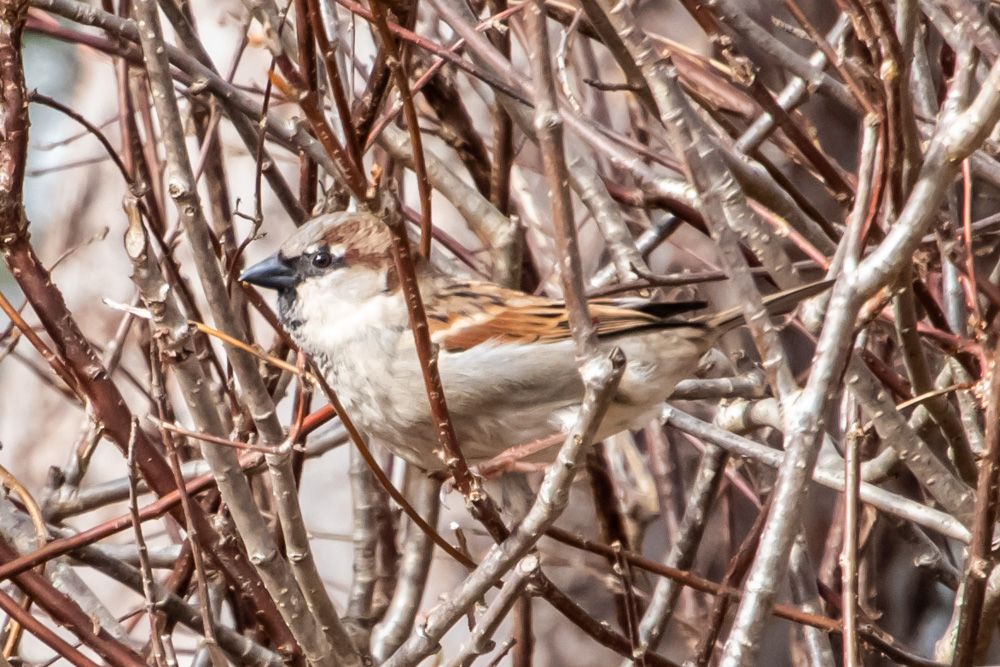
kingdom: Animalia
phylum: Chordata
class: Aves
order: Passeriformes
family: Passeridae
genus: Passer
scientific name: Passer domesticus
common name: House sparrow
